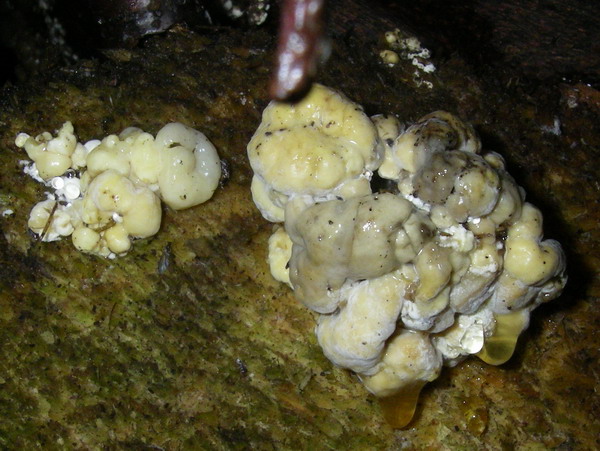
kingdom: Fungi
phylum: Ascomycota
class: Sordariomycetes
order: Xylariales
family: Hypoxylaceae
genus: Nodulisporium
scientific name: Nodulisporium cecidiogenes
